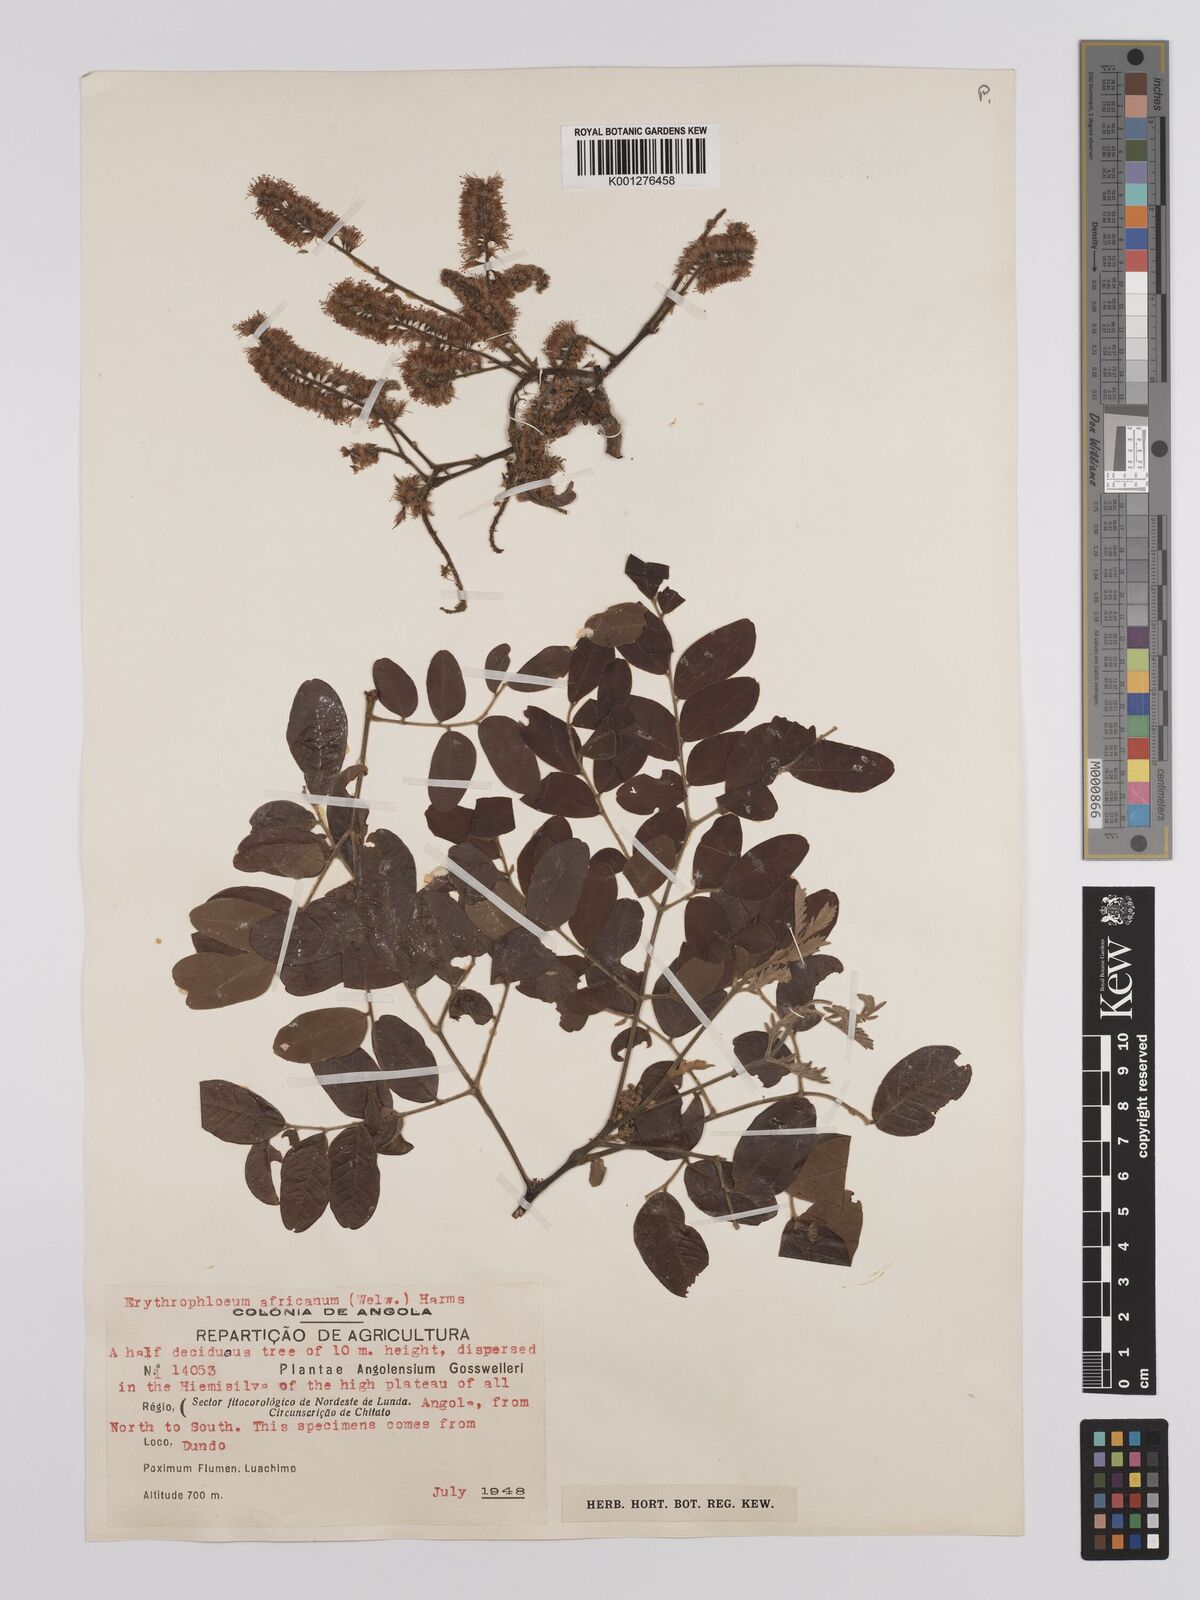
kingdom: Plantae
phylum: Tracheophyta
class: Magnoliopsida
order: Fabales
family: Fabaceae
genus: Erythrophleum
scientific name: Erythrophleum africanum
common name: African blackwood
